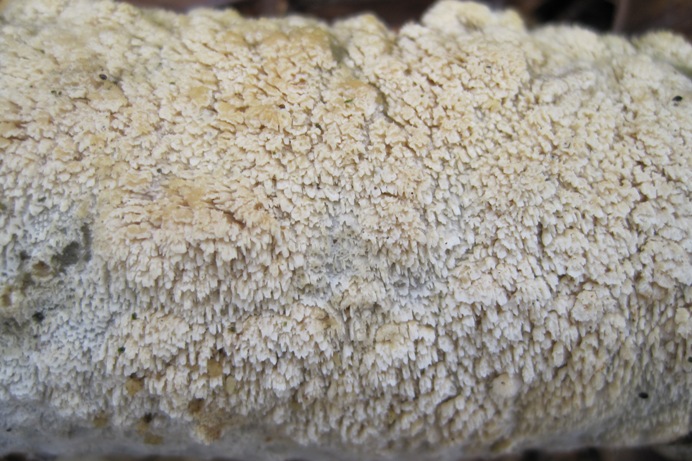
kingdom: Fungi
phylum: Basidiomycota
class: Agaricomycetes
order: Hymenochaetales
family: Schizoporaceae
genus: Schizopora
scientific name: Schizopora paradoxa
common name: hvid tandsvamp
